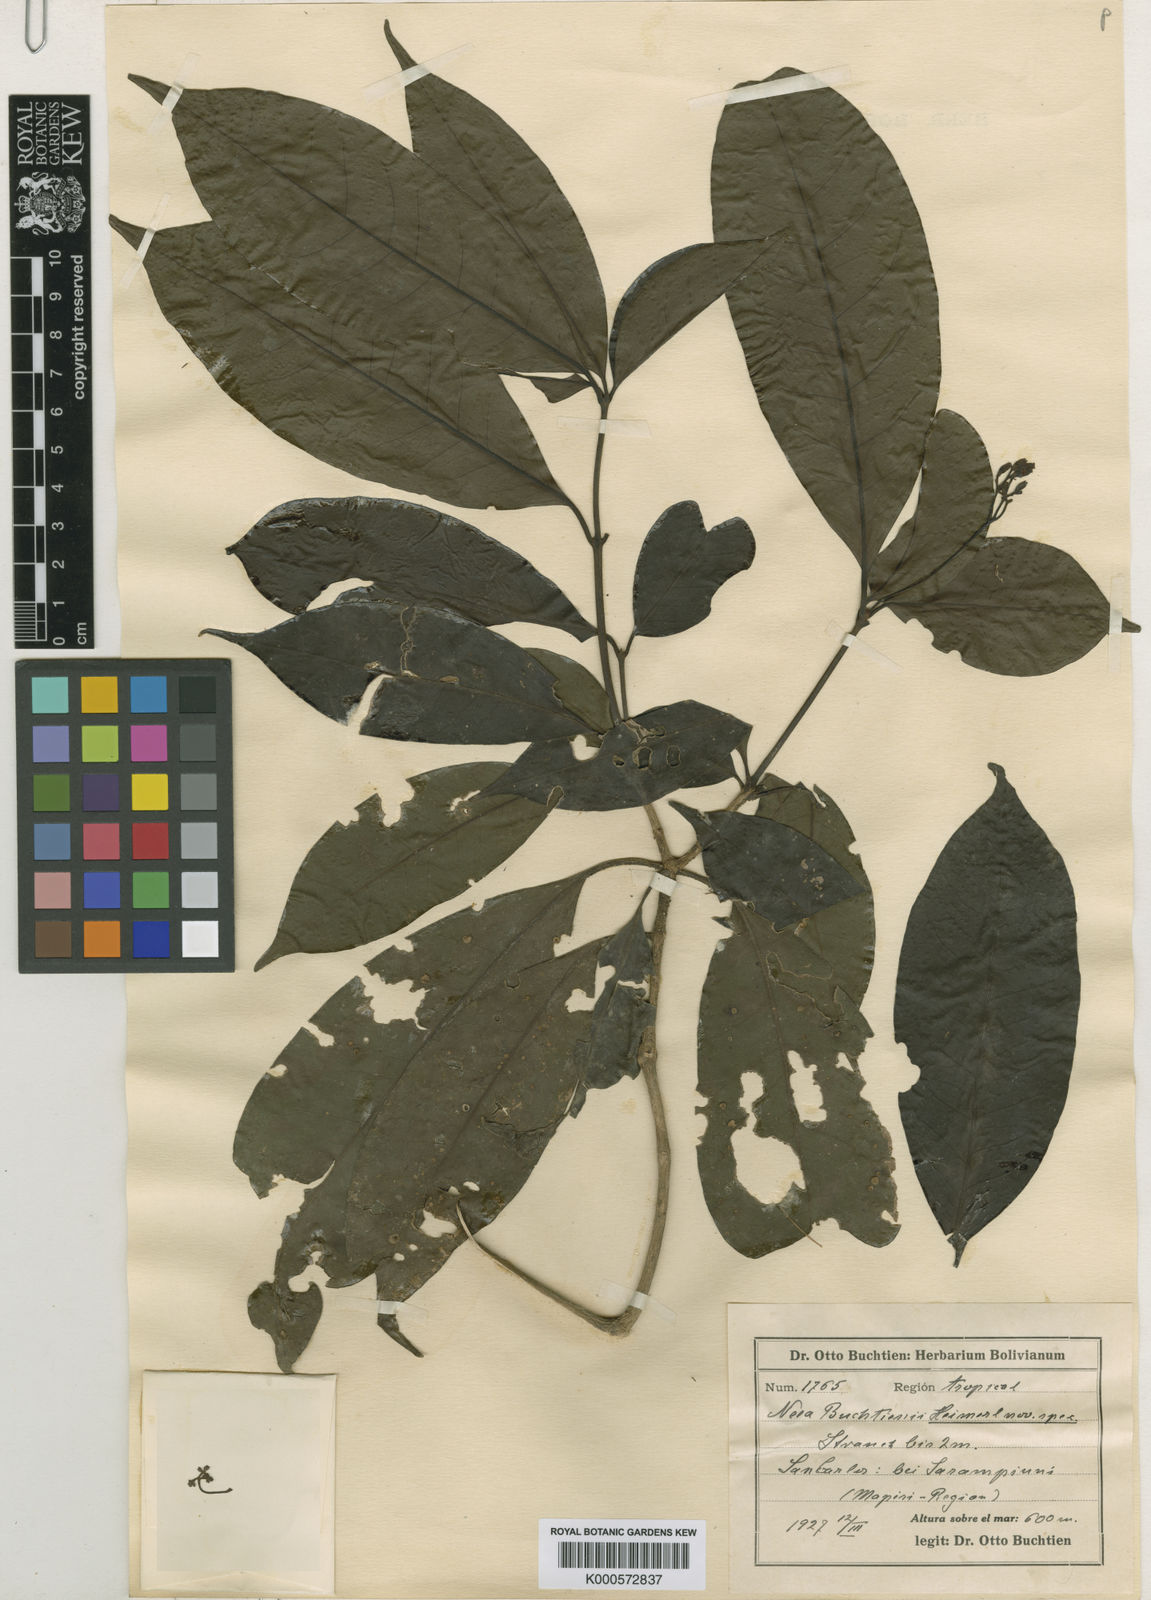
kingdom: Plantae
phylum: Tracheophyta
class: Magnoliopsida
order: Caryophyllales
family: Nyctaginaceae
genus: Neea
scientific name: Neea
